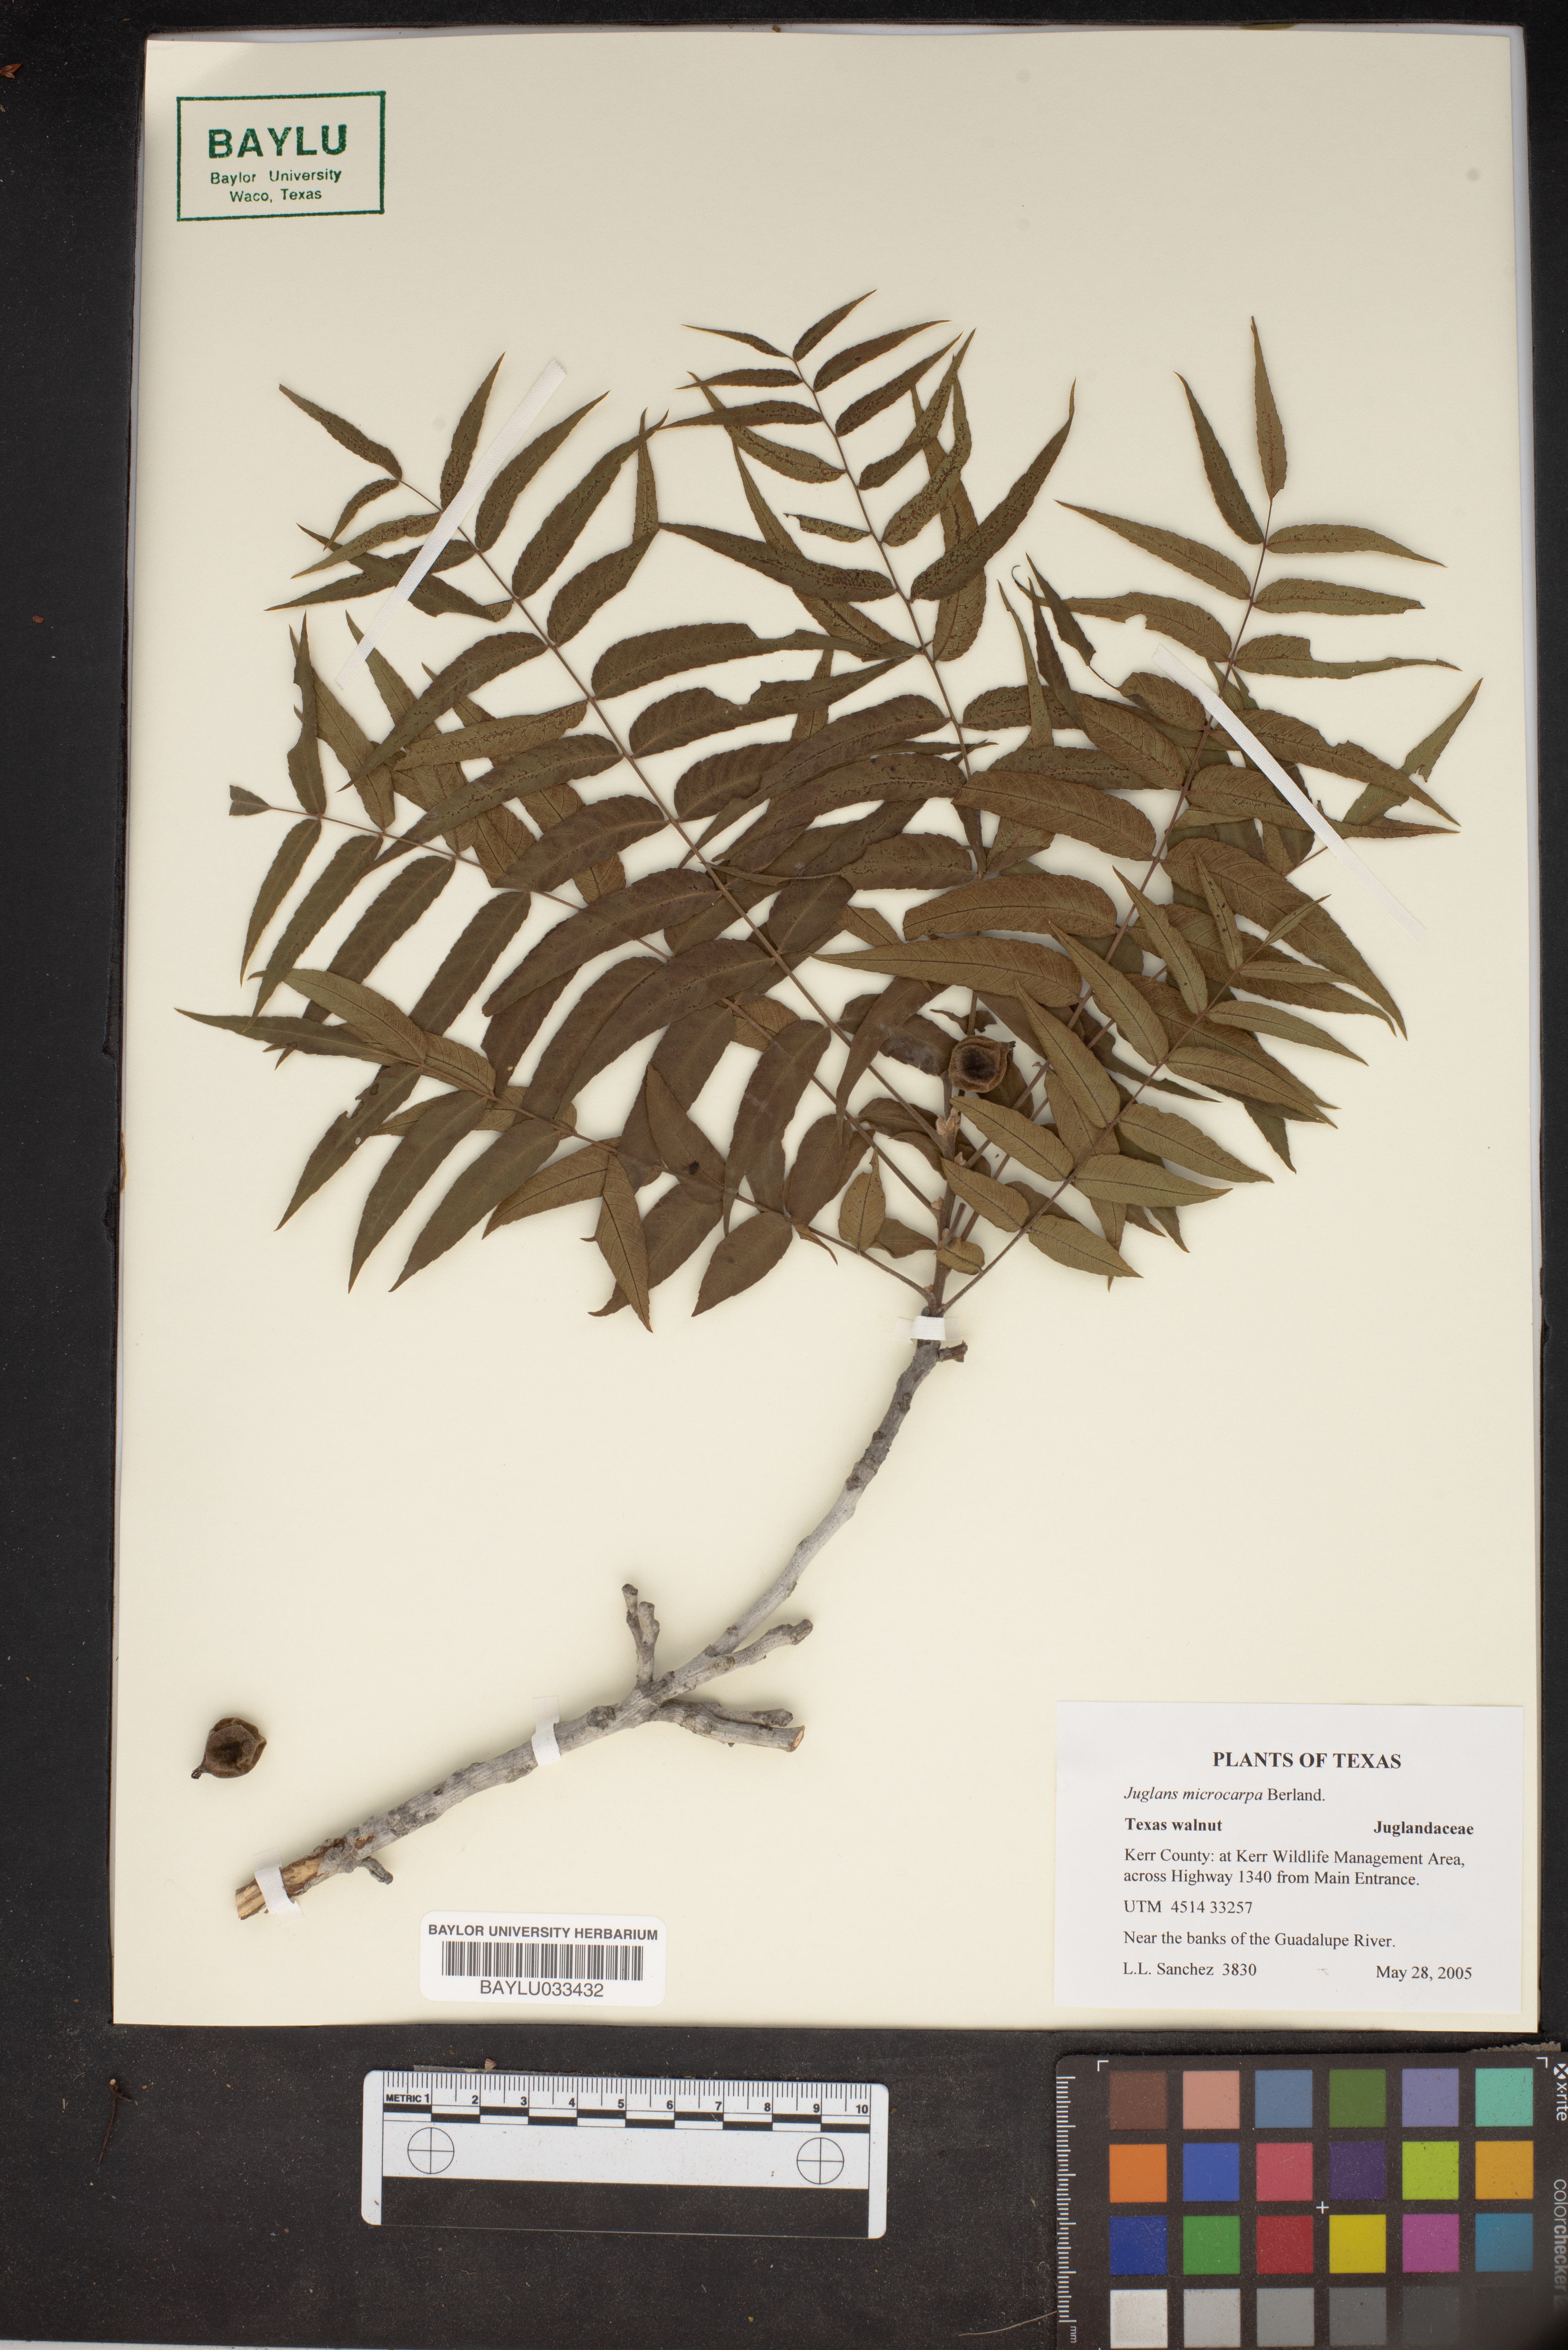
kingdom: Plantae
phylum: Tracheophyta
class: Magnoliopsida
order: Fagales
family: Juglandaceae
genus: Juglans
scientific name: Juglans microcarpa
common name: Texas walnut
